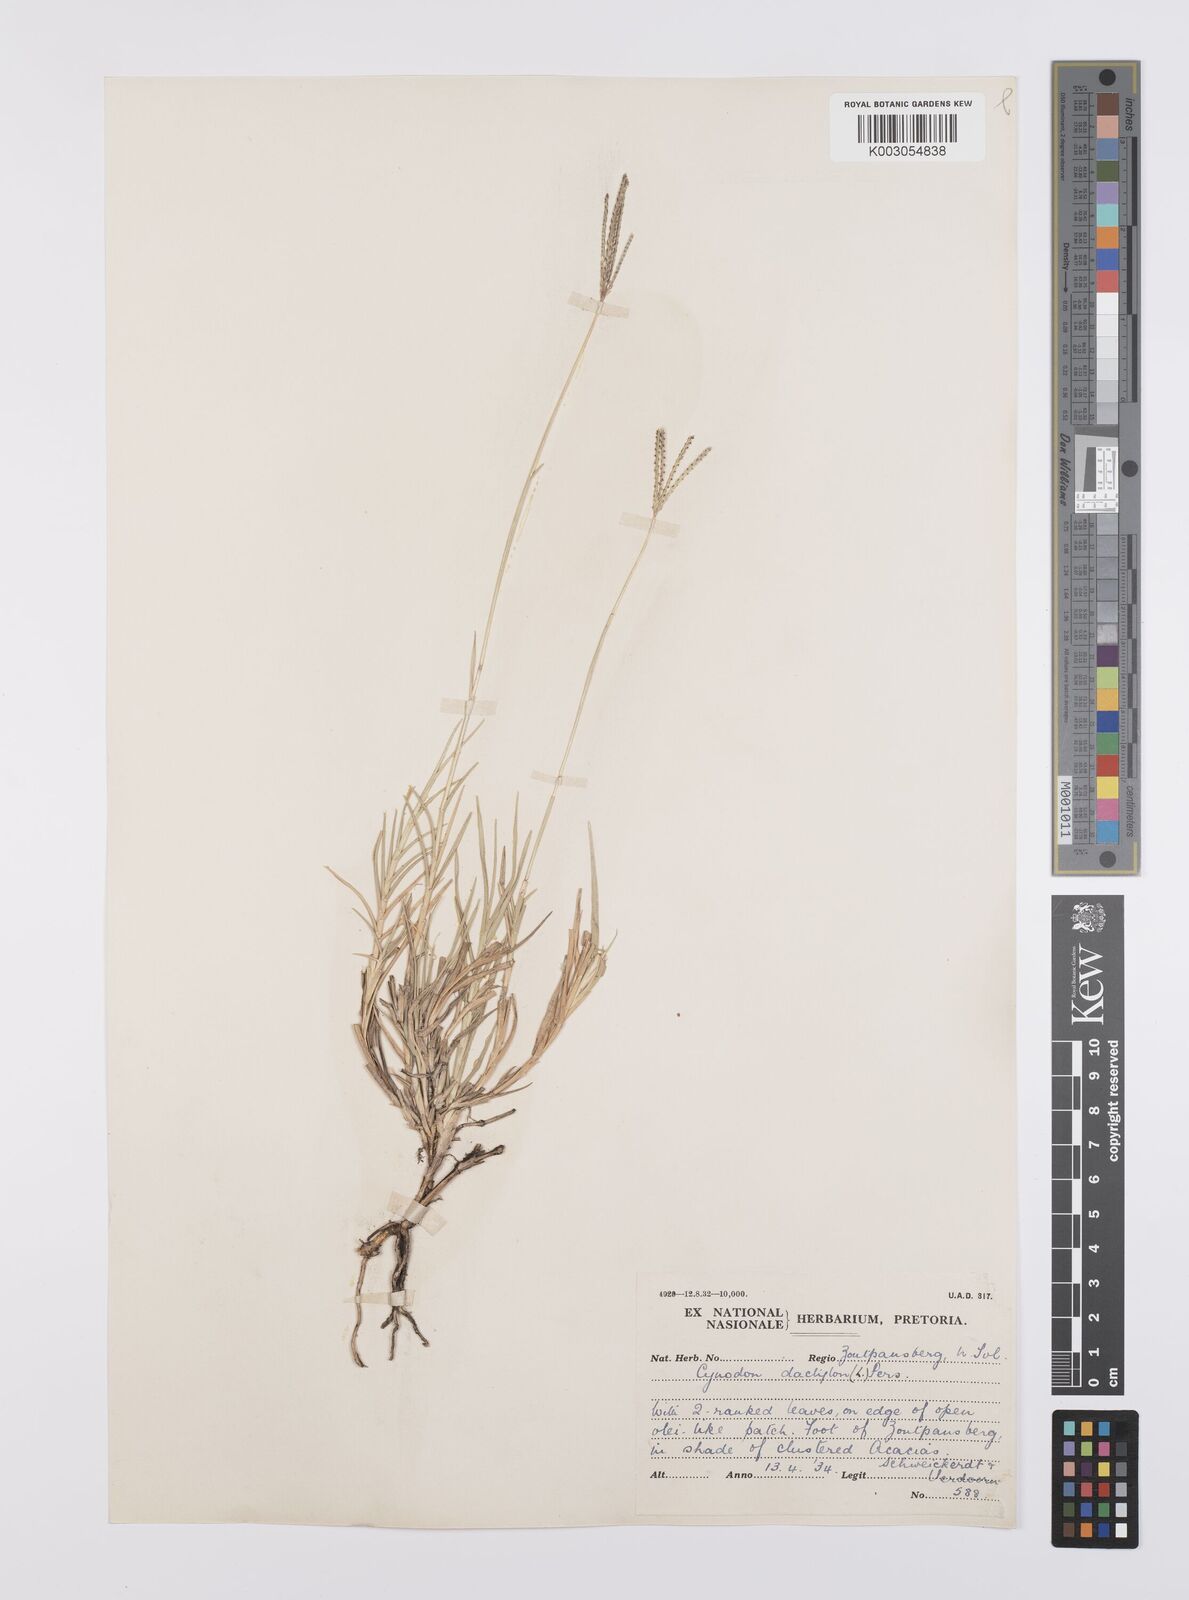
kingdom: Plantae
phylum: Tracheophyta
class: Liliopsida
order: Poales
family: Poaceae
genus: Cynodon
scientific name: Cynodon dactylon
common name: Bermuda grass
